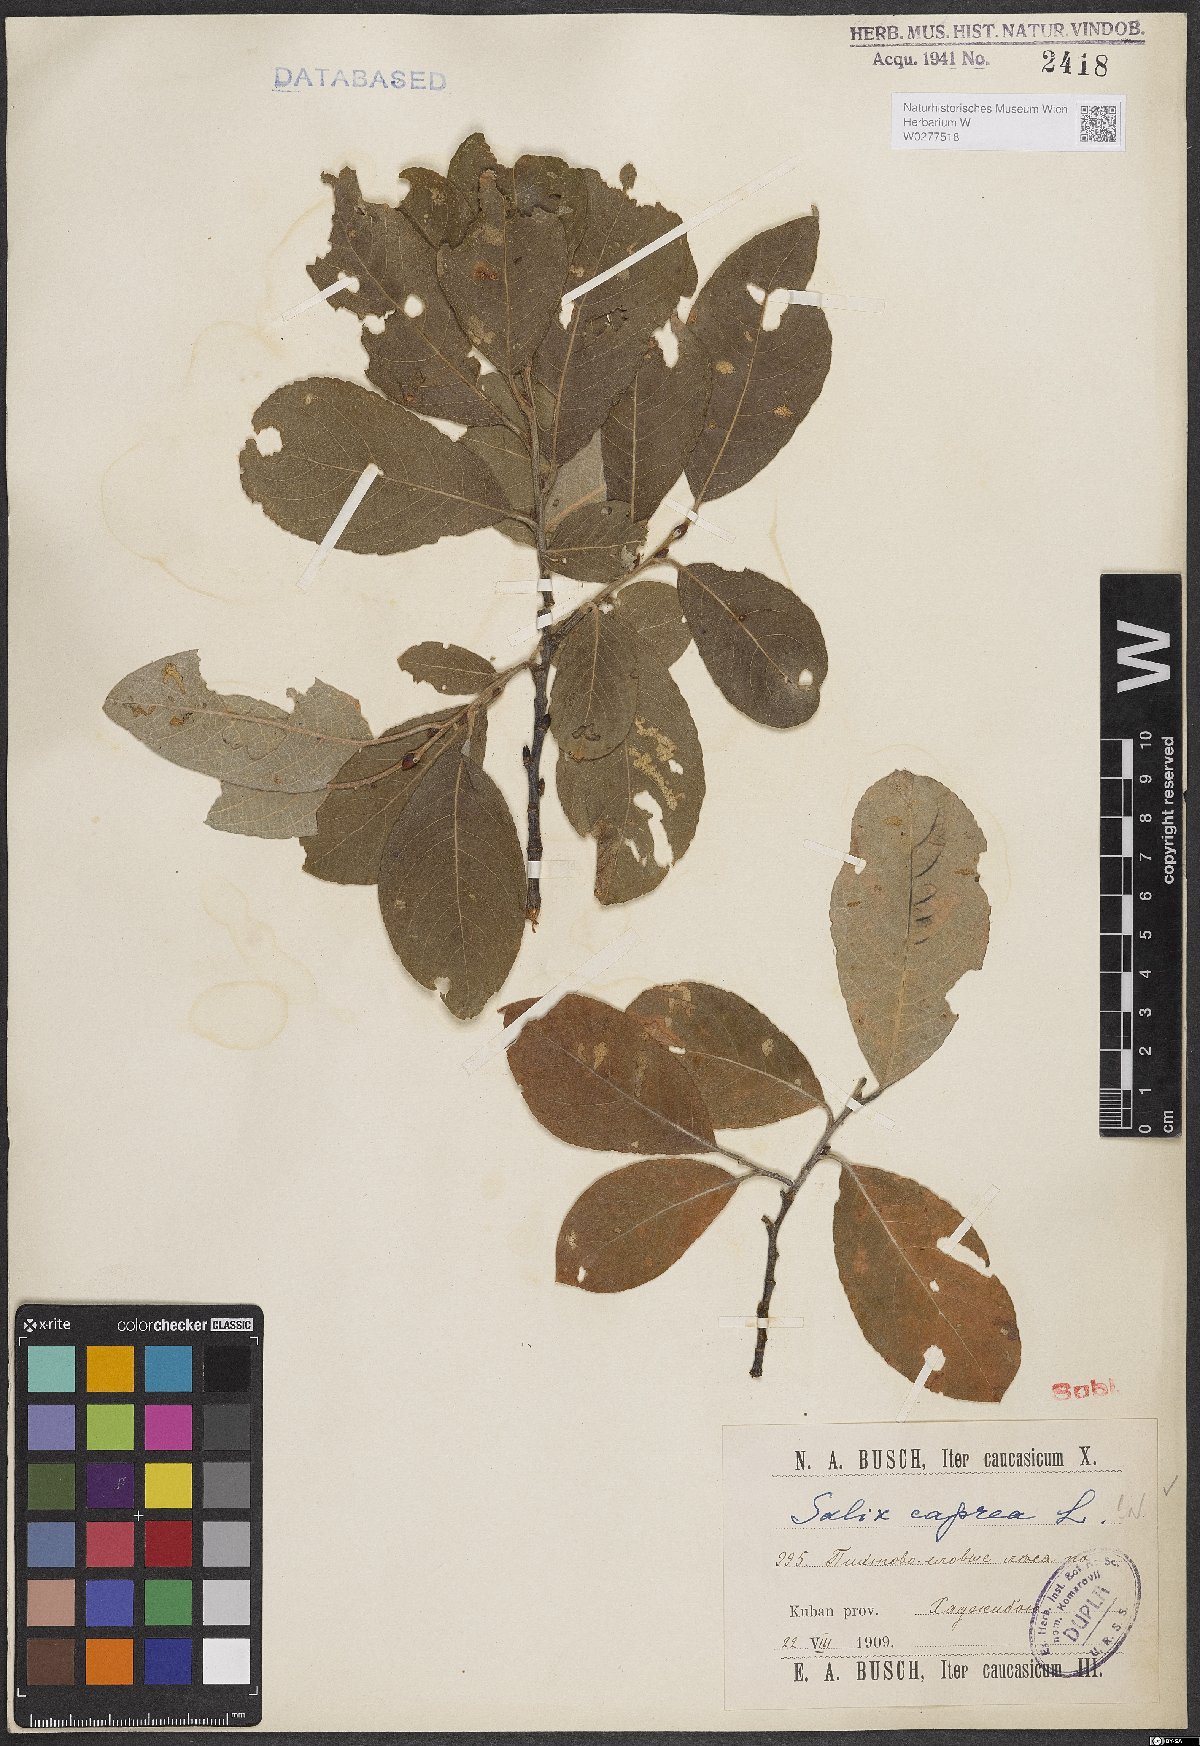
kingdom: Plantae
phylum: Tracheophyta
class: Magnoliopsida
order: Malpighiales
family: Salicaceae
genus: Salix
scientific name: Salix caprea
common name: Goat willow
